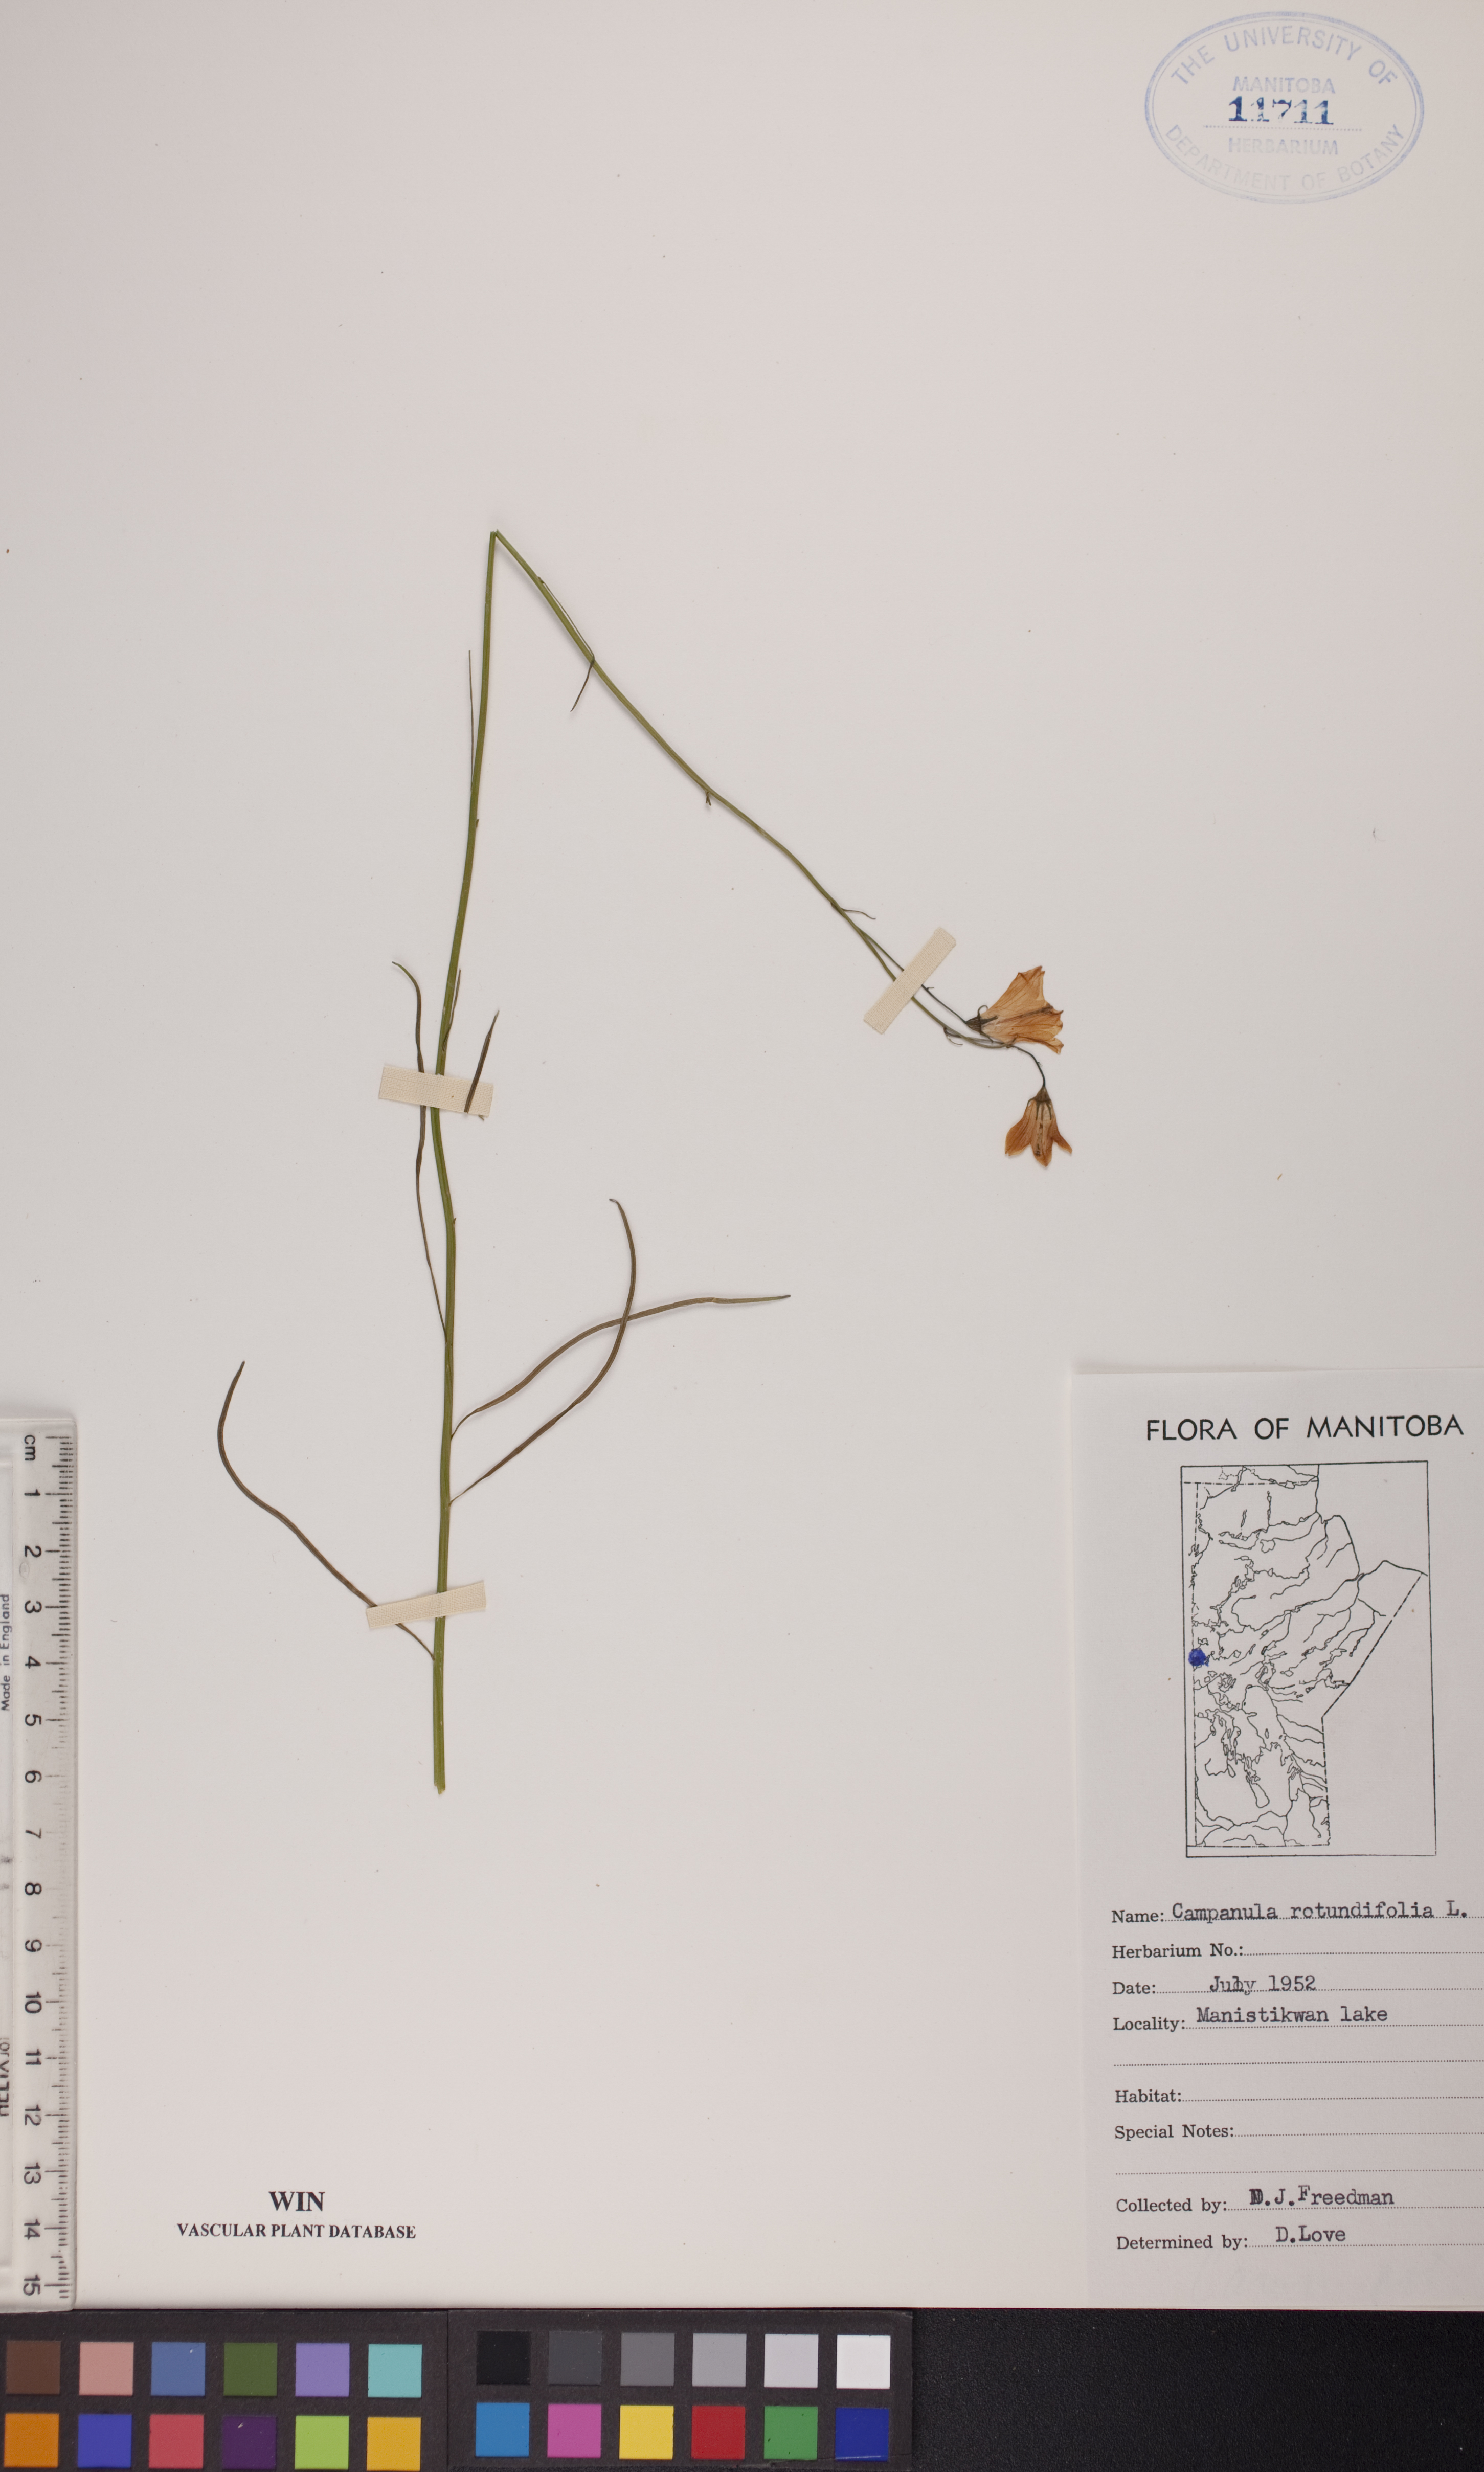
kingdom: Plantae
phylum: Tracheophyta
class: Magnoliopsida
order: Asterales
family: Campanulaceae
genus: Campanula
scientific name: Campanula rotundifolia
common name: Harebell
